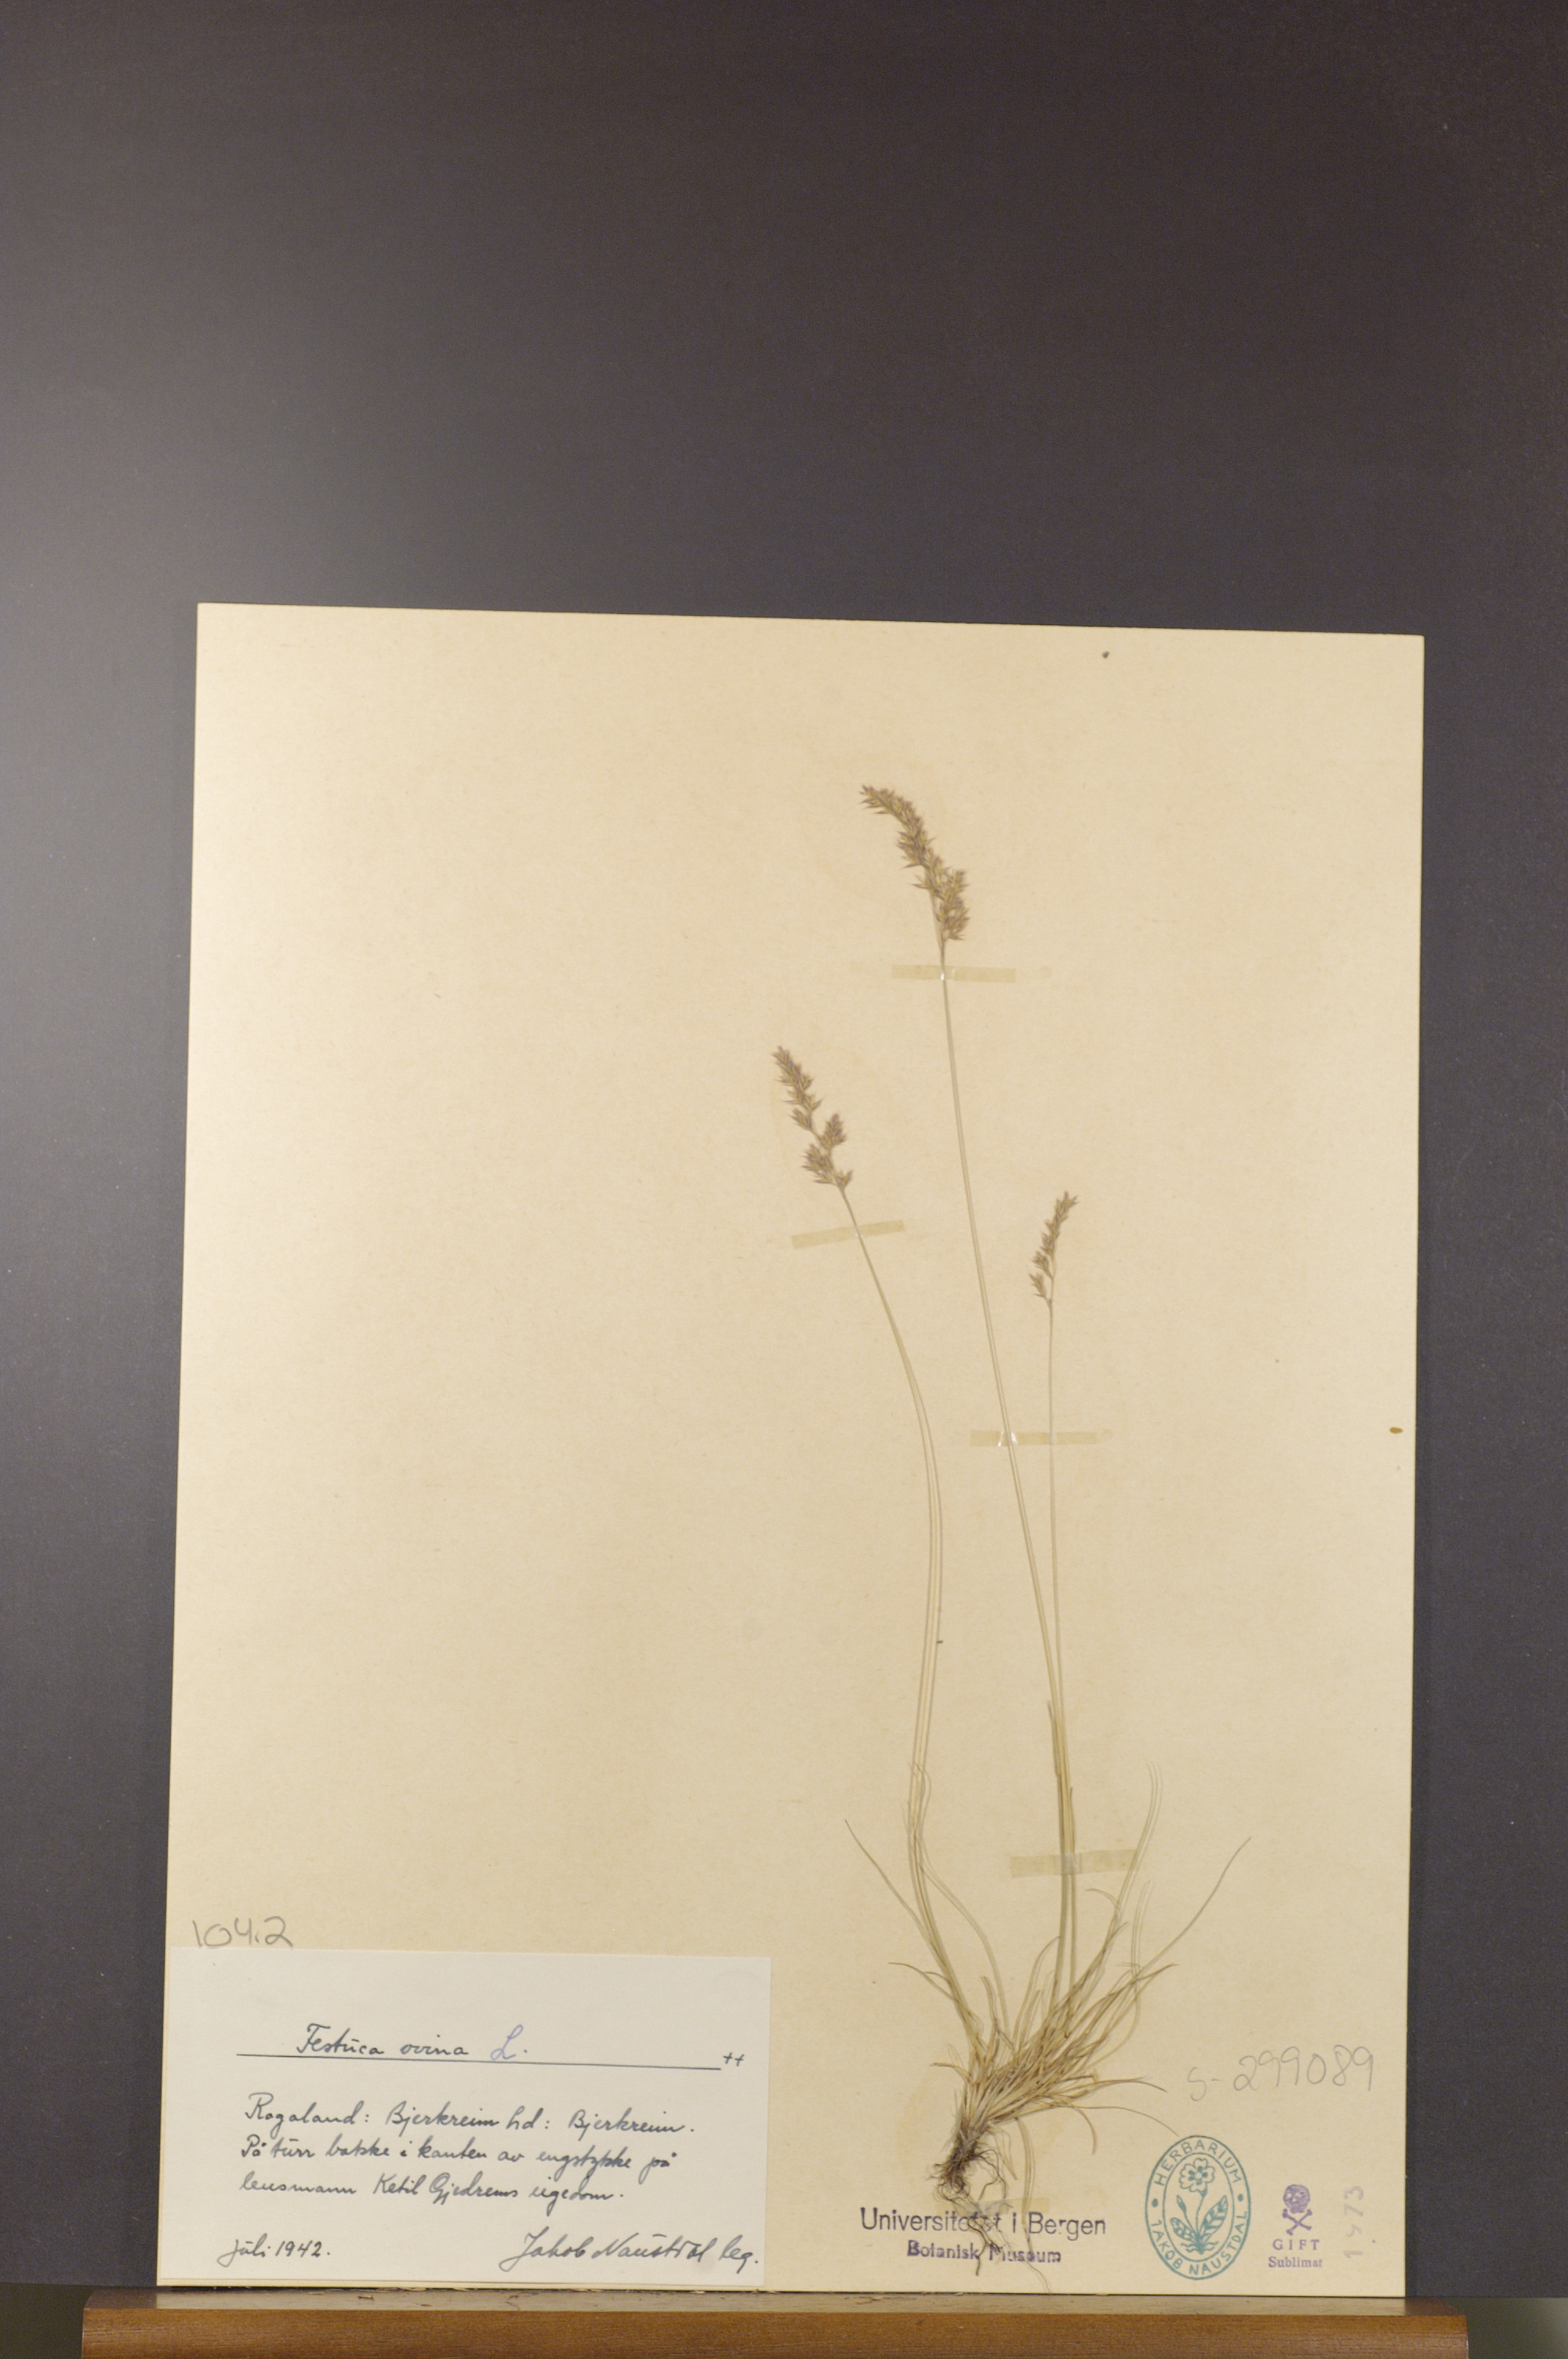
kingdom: Plantae
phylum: Tracheophyta
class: Liliopsida
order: Poales
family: Poaceae
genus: Festuca
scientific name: Festuca ovina
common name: Sheep fescue
